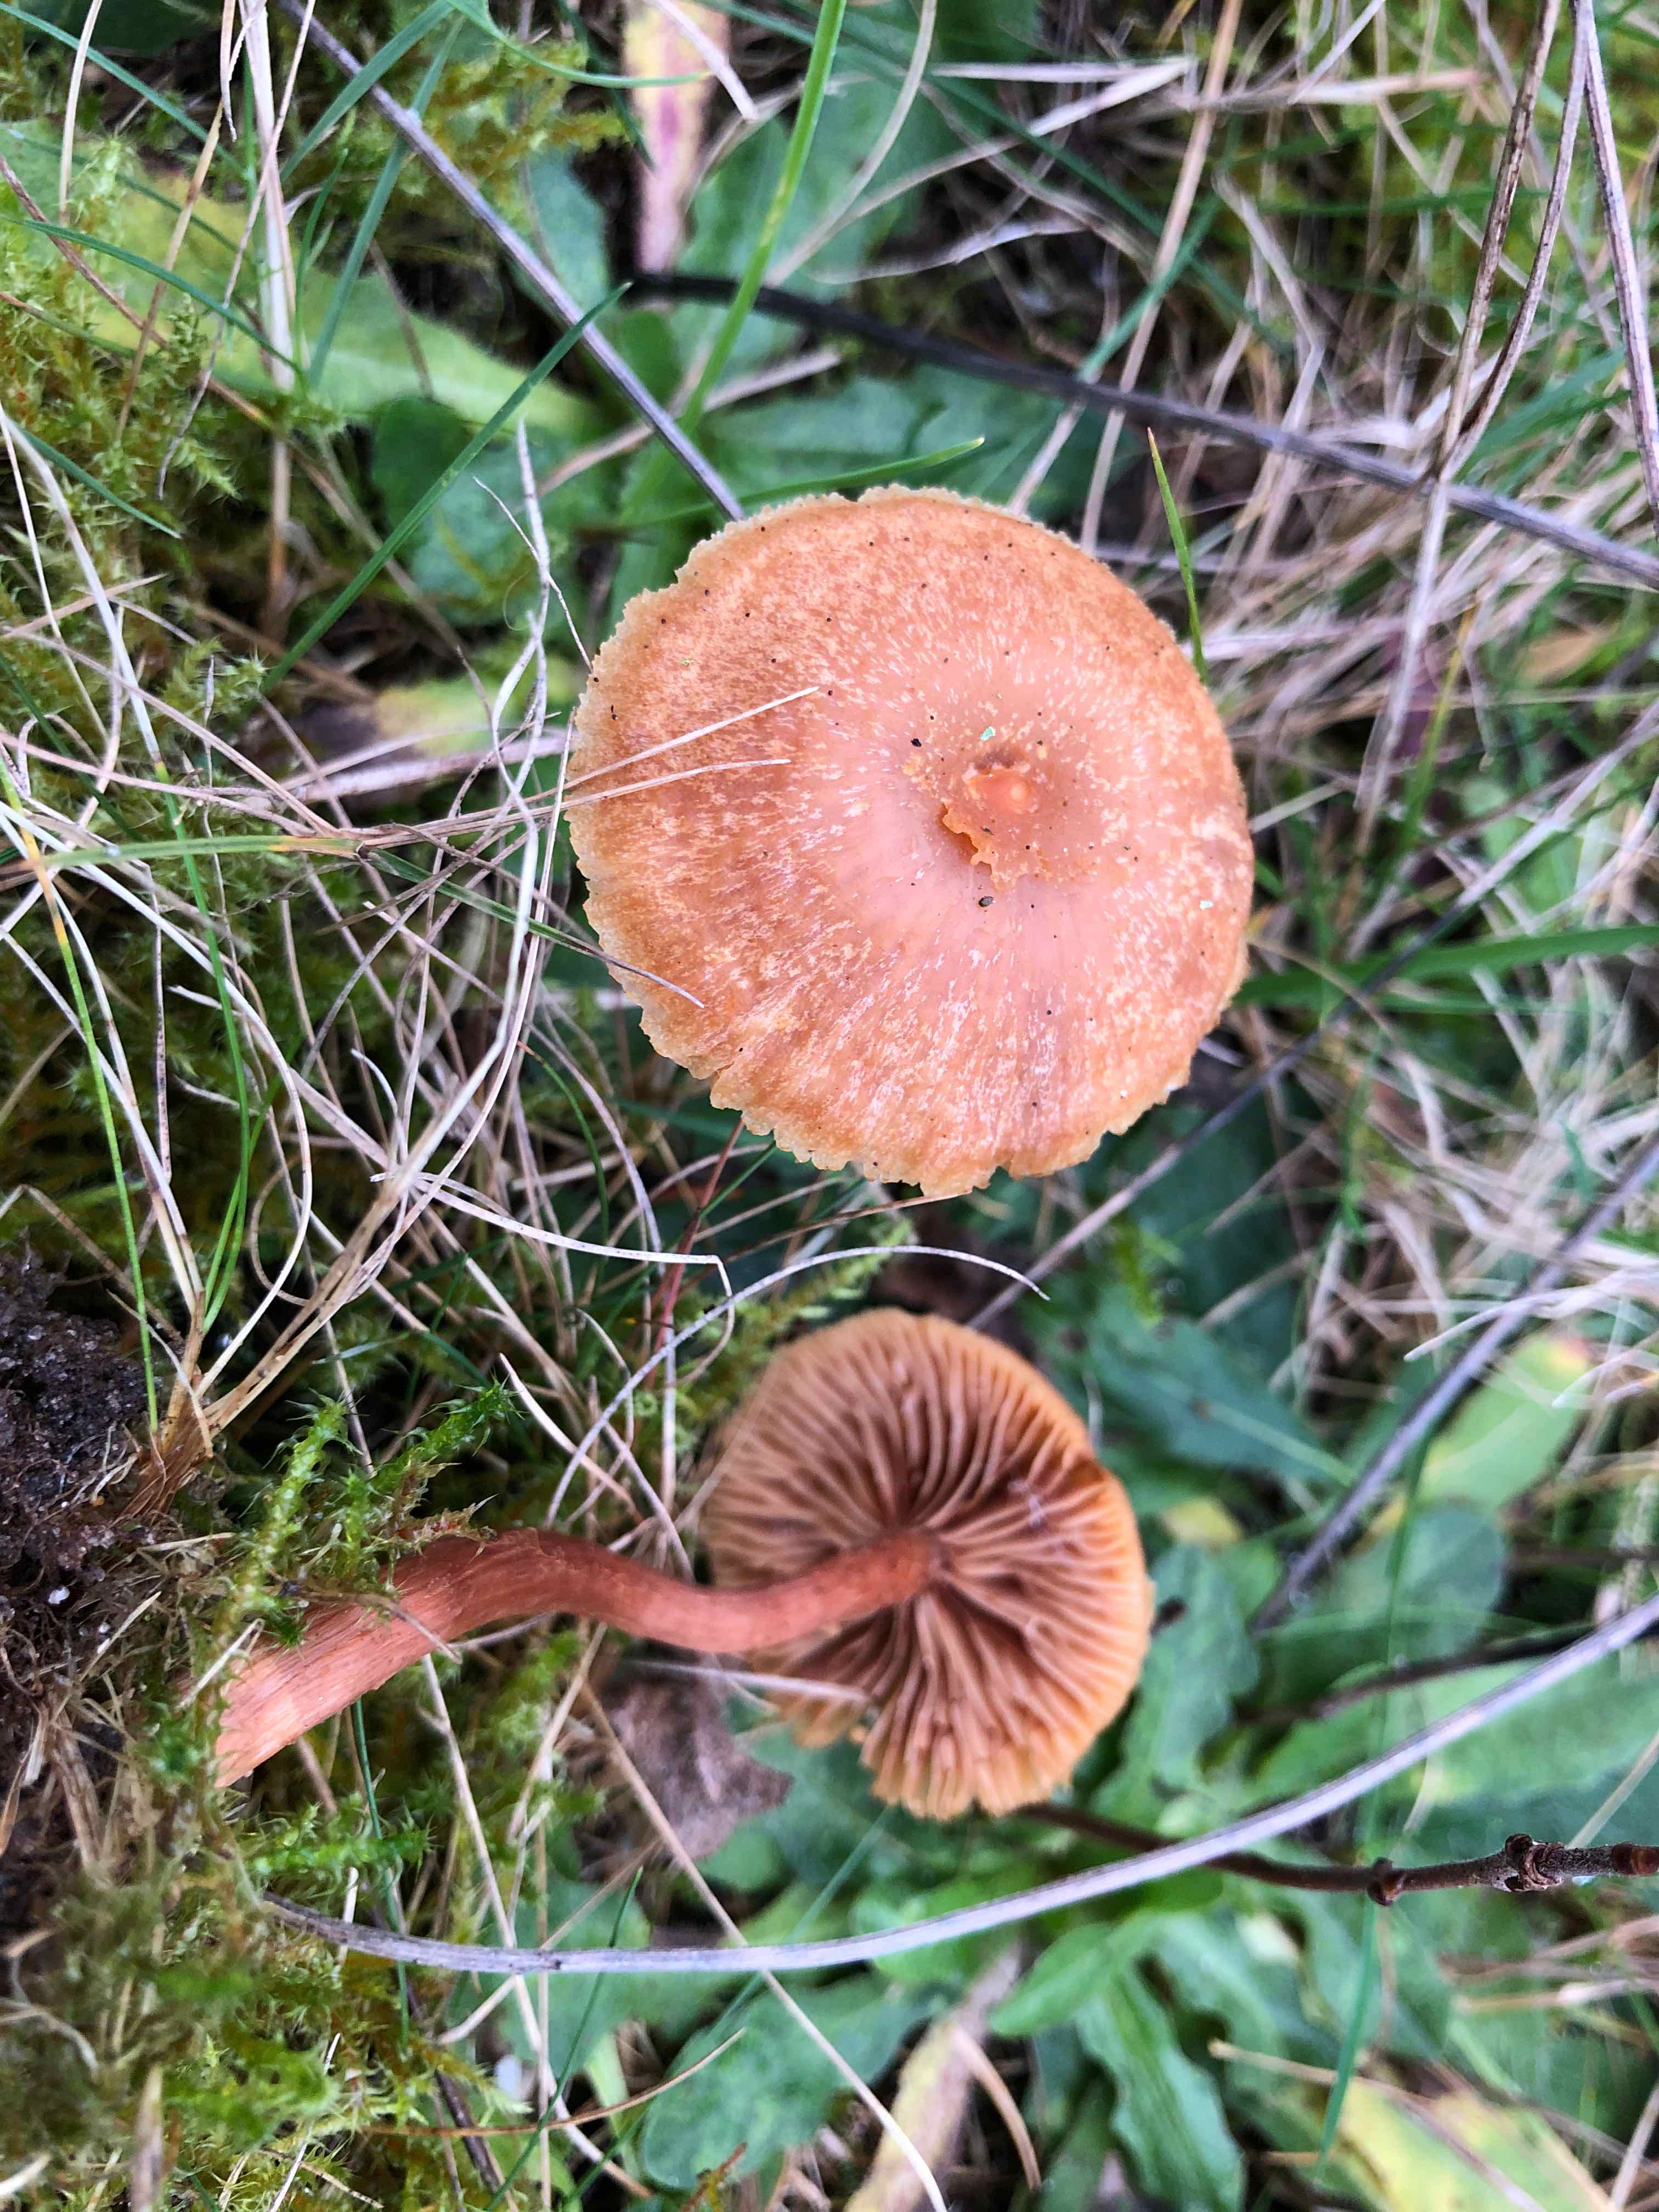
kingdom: Fungi
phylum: Basidiomycota
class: Agaricomycetes
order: Agaricales
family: Hydnangiaceae
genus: Laccaria
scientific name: Laccaria proxima
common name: stor ametysthat
